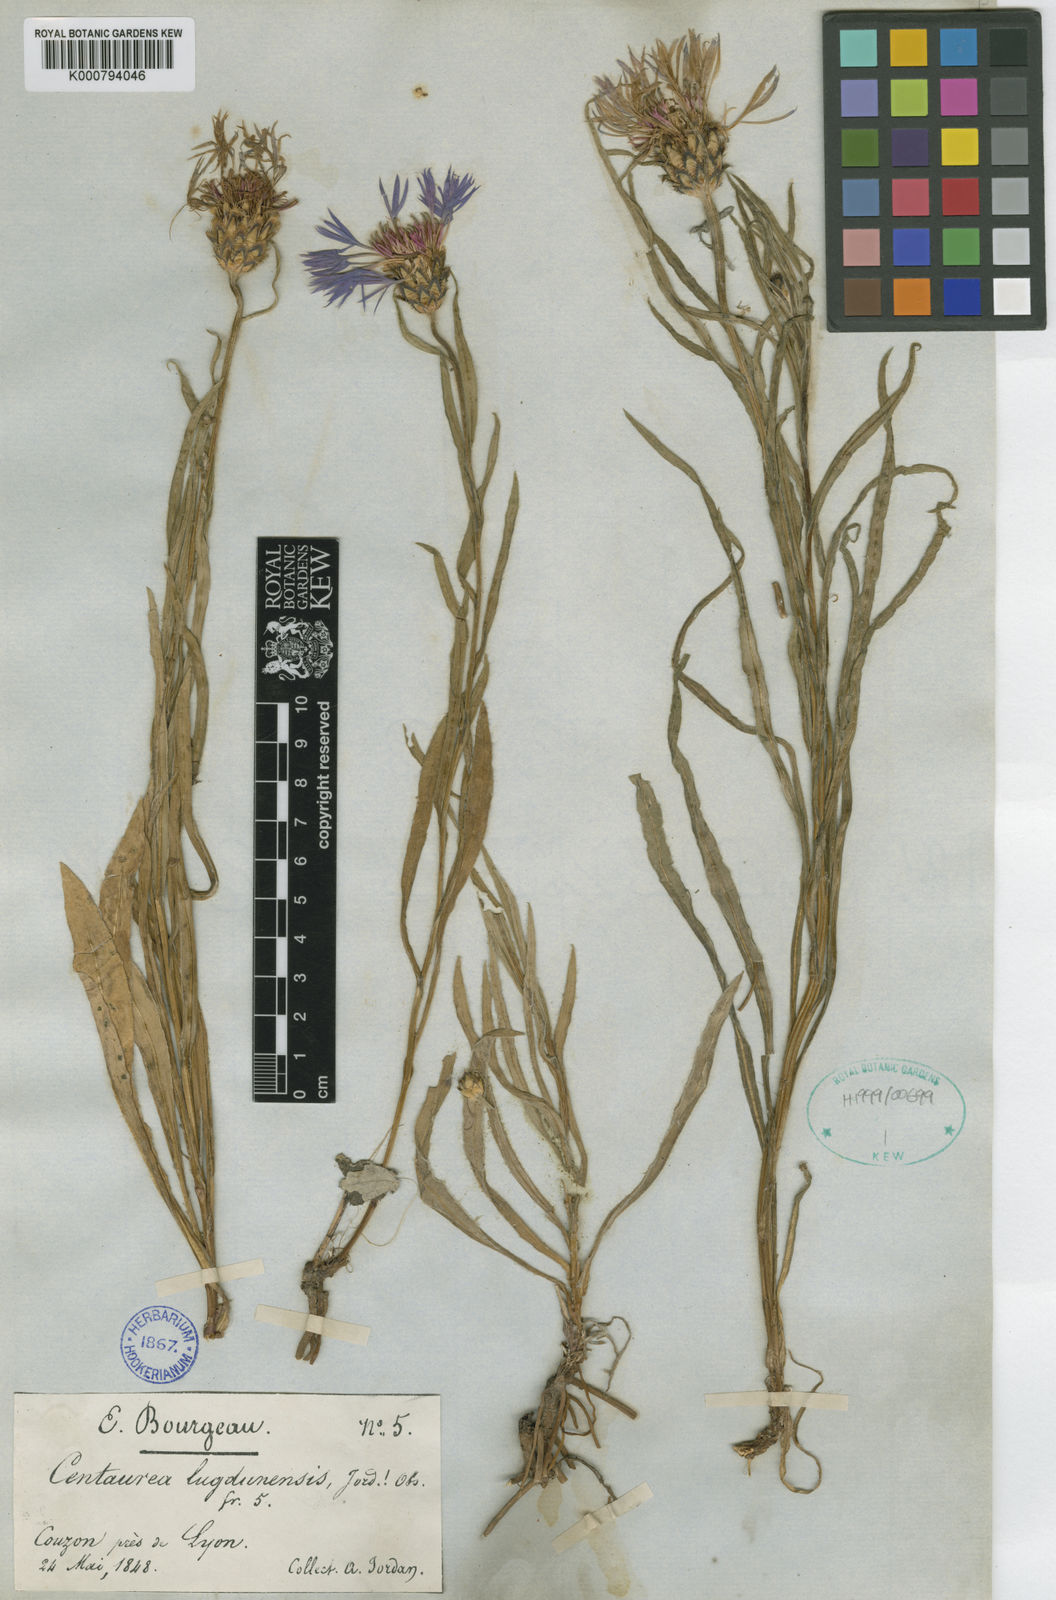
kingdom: Plantae
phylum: Tracheophyta
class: Magnoliopsida
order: Asterales
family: Asteraceae
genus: Centaurea
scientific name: Centaurea triumfettii
